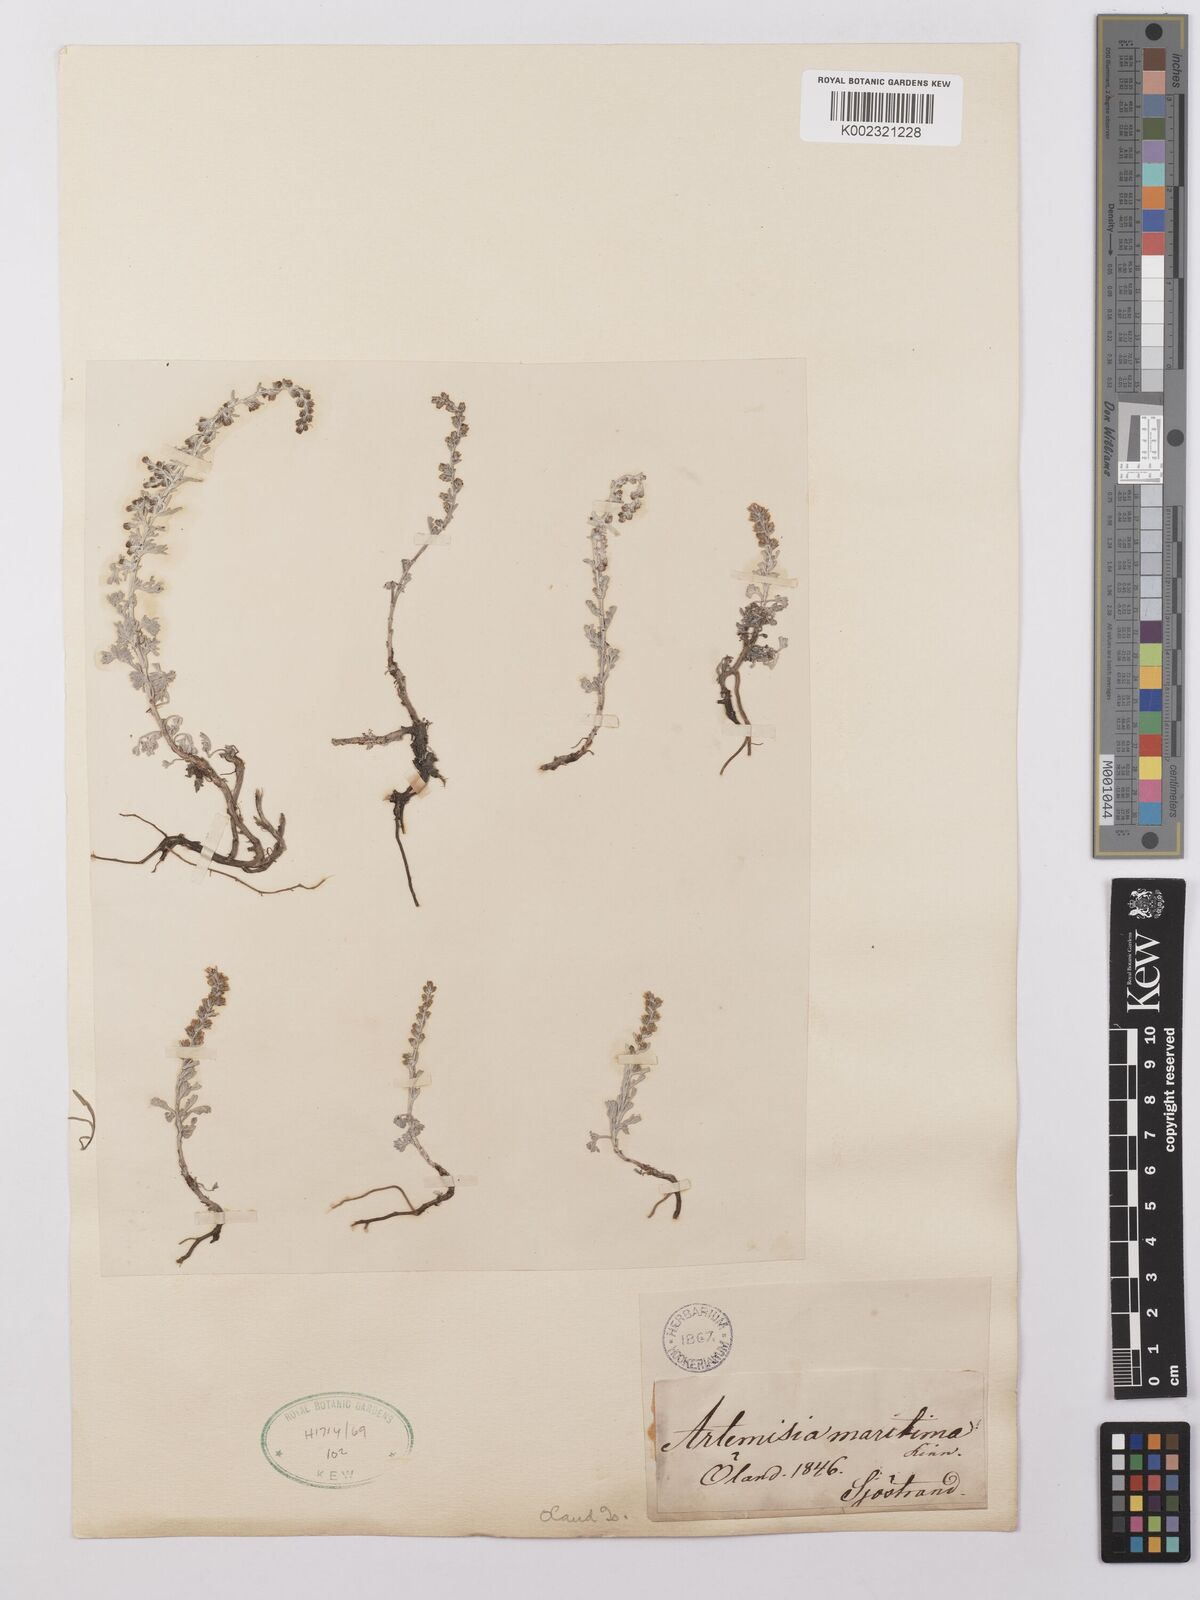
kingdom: Plantae
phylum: Tracheophyta
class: Magnoliopsida
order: Asterales
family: Asteraceae
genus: Artemisia
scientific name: Artemisia maritima
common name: Wormseed
